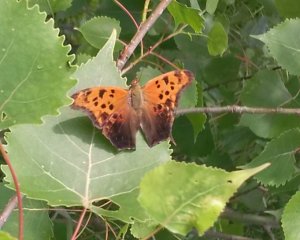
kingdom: Animalia
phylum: Arthropoda
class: Insecta
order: Lepidoptera
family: Nymphalidae
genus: Polygonia
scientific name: Polygonia interrogationis
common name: Question Mark
